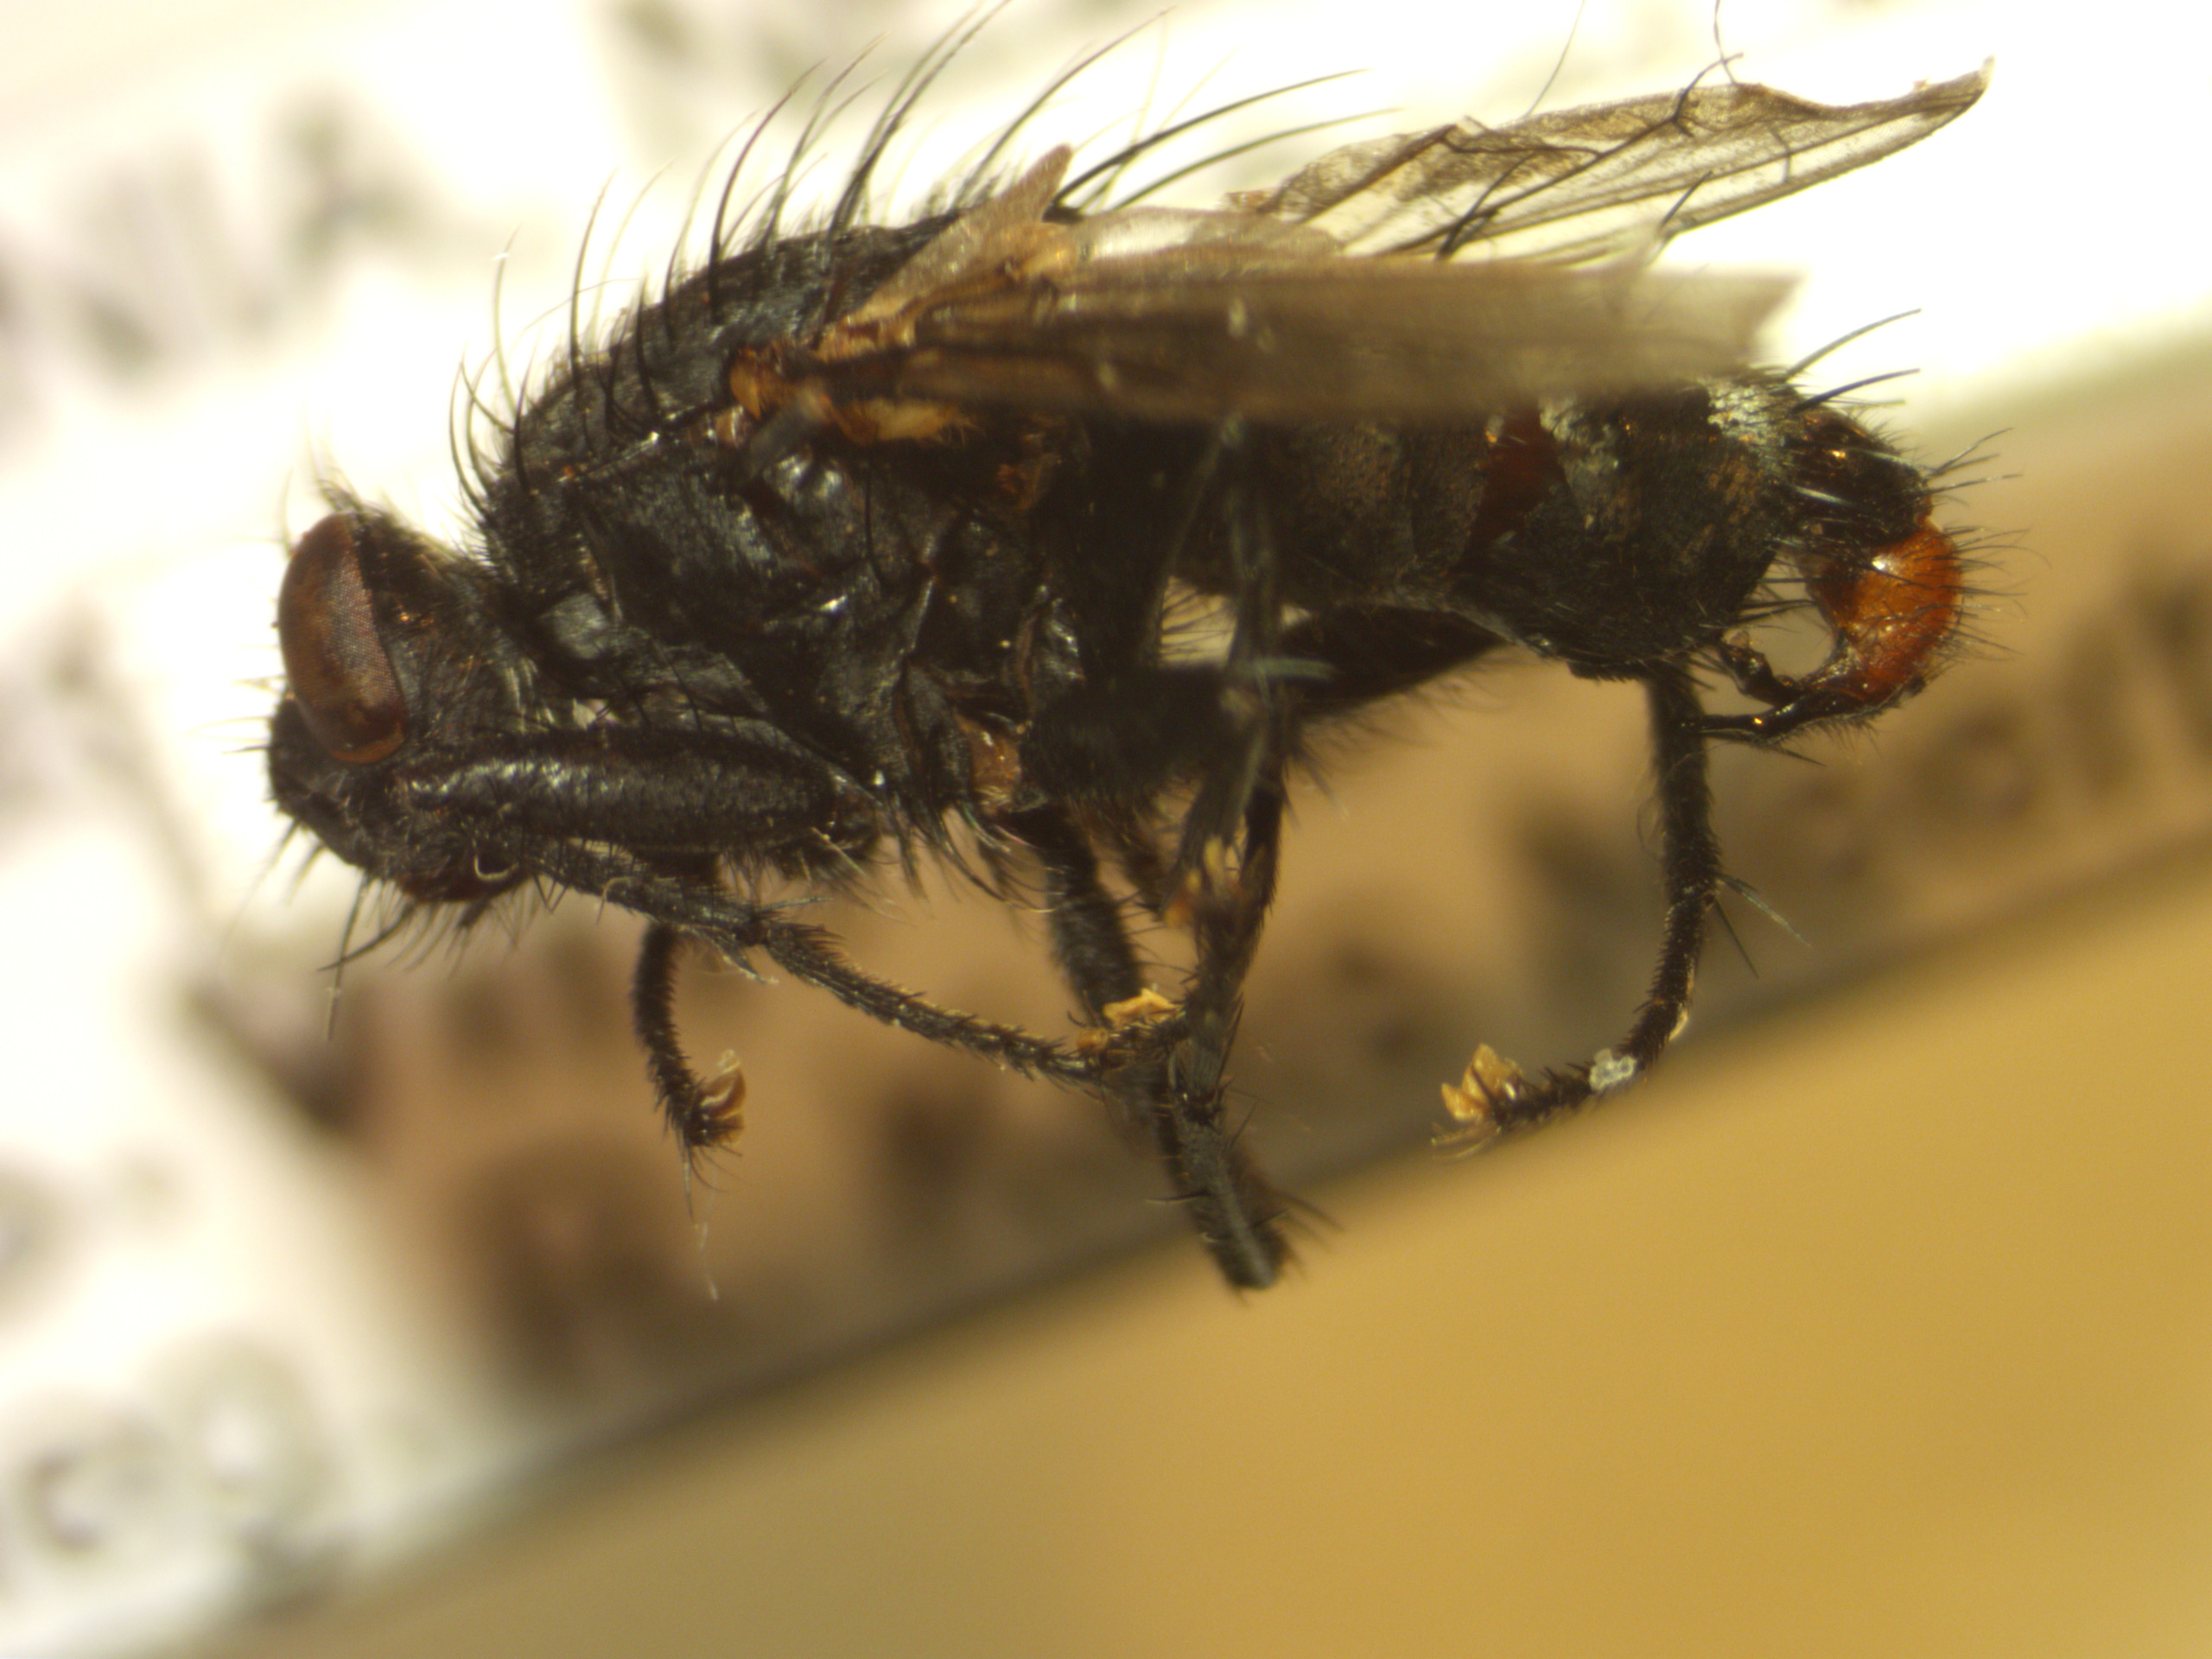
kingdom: Animalia
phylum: Arthropoda
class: Insecta
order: Diptera
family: Sarcophagidae
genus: Sarcophaga
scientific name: Sarcophaga haemorrhoa
